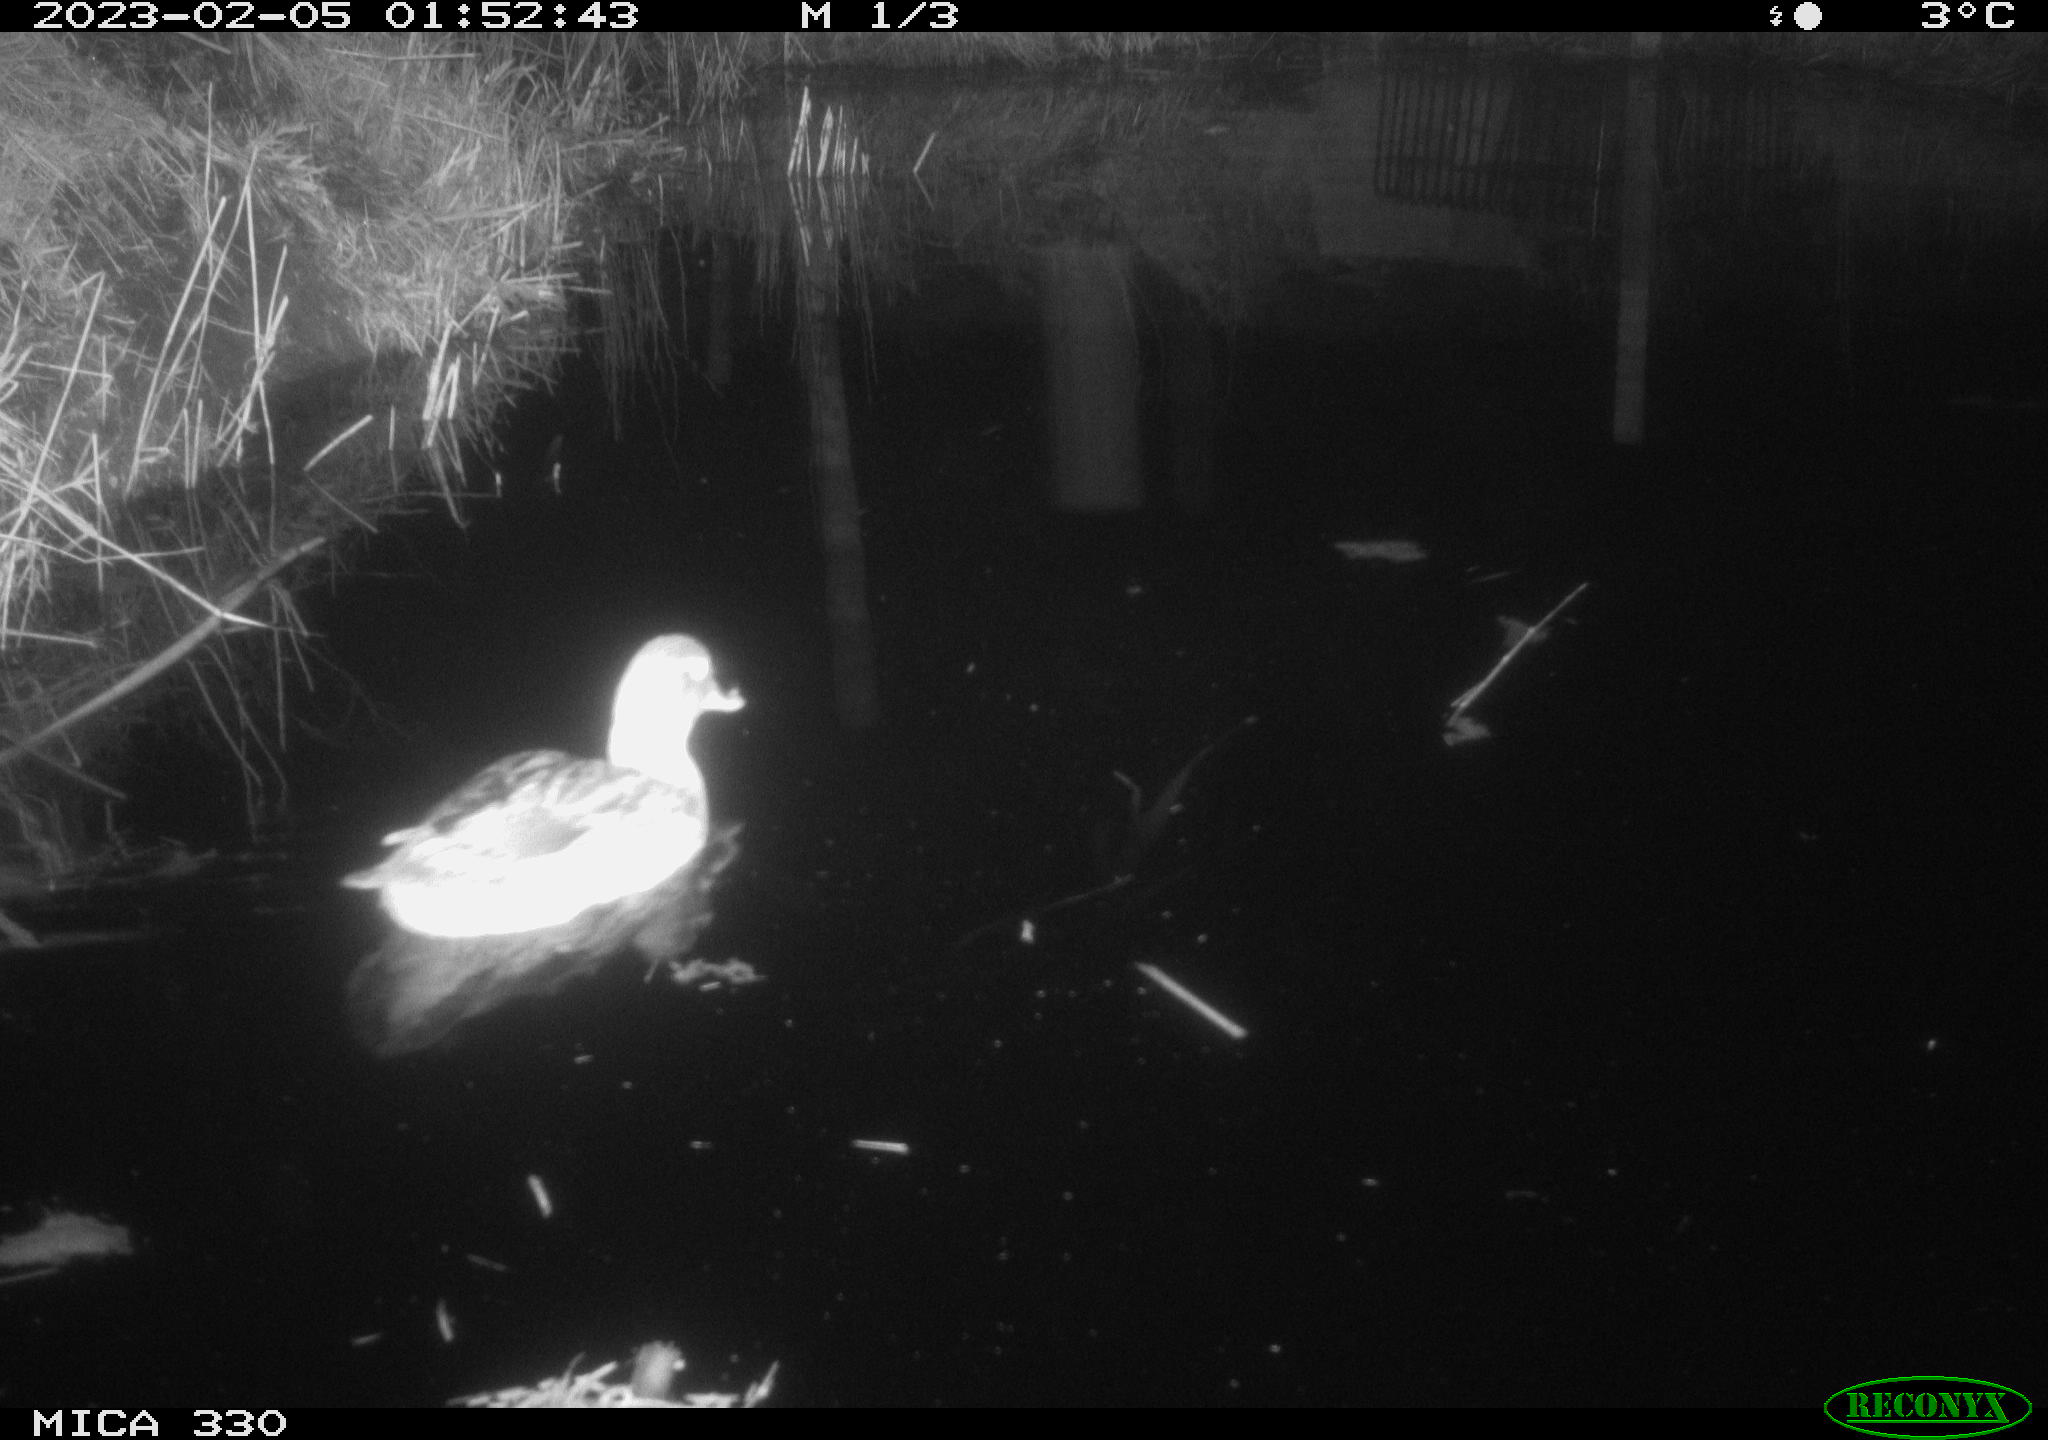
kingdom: Animalia
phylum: Chordata
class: Aves
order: Anseriformes
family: Anatidae
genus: Anas
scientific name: Anas
